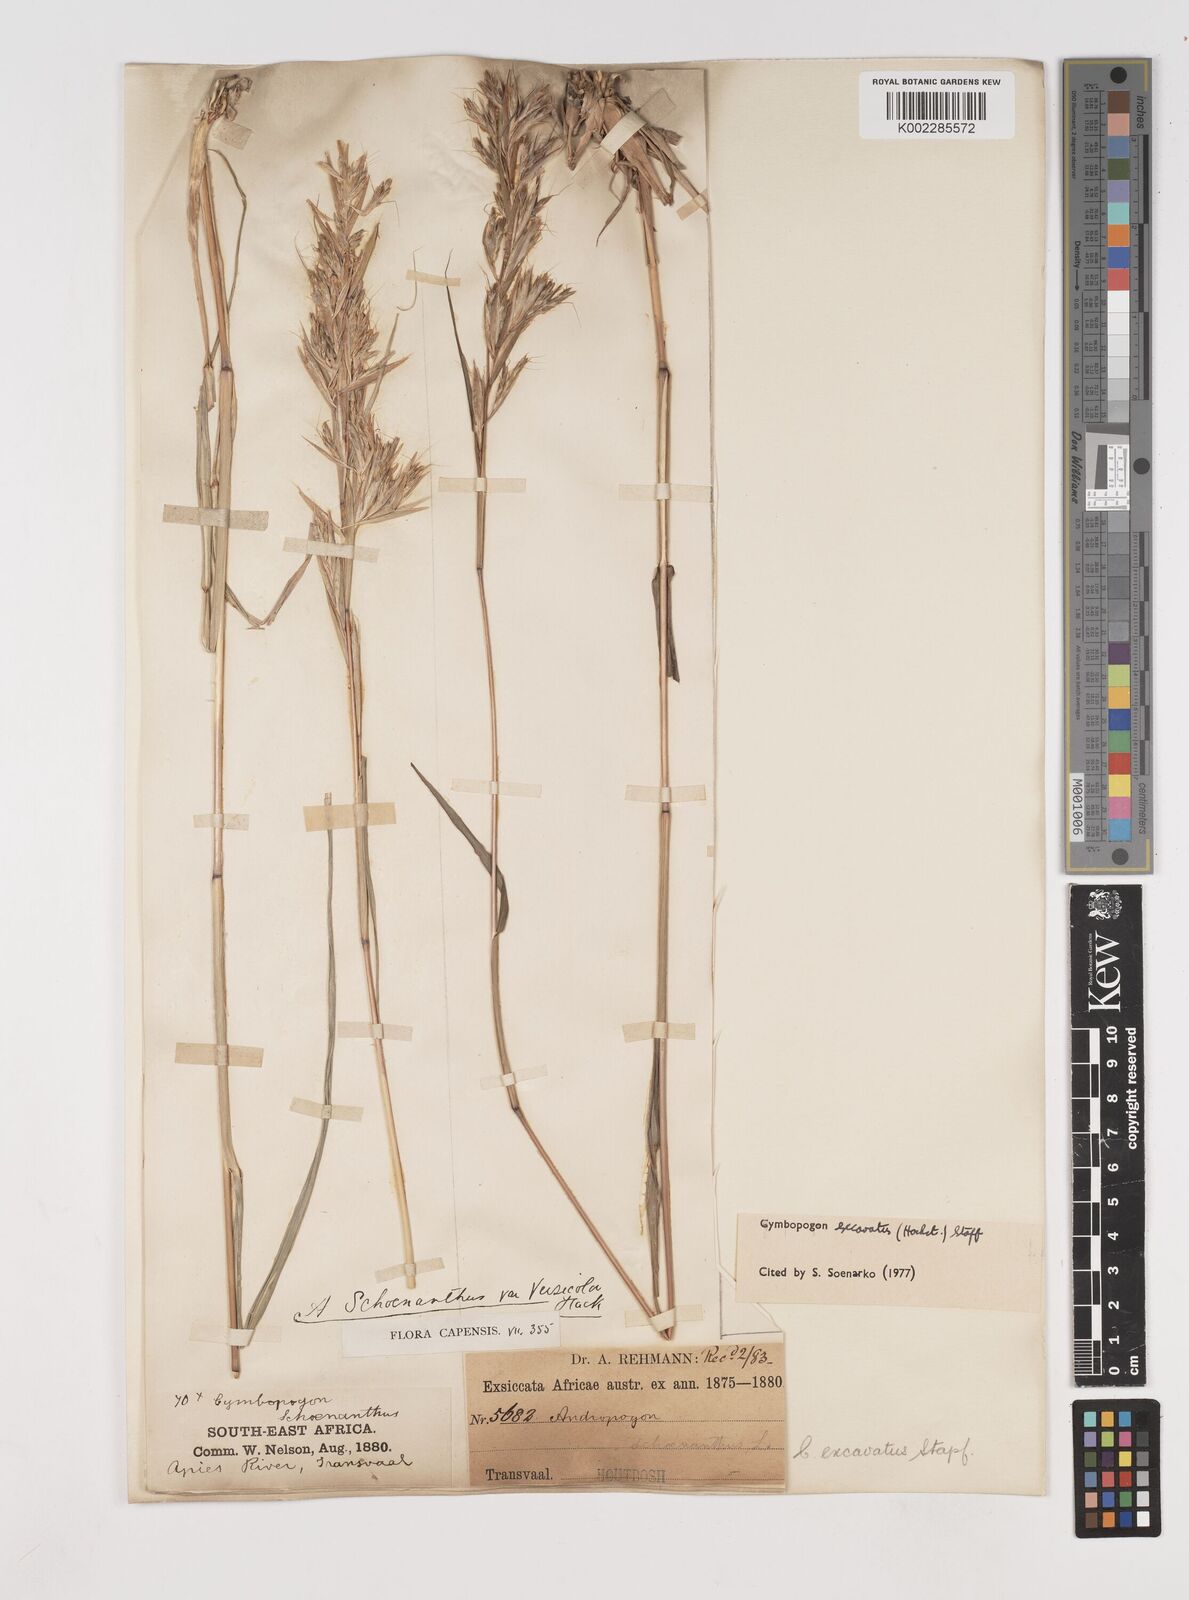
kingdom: Plantae
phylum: Tracheophyta
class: Liliopsida
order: Poales
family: Poaceae
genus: Cymbopogon
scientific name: Cymbopogon caesius
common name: Kachi grass
